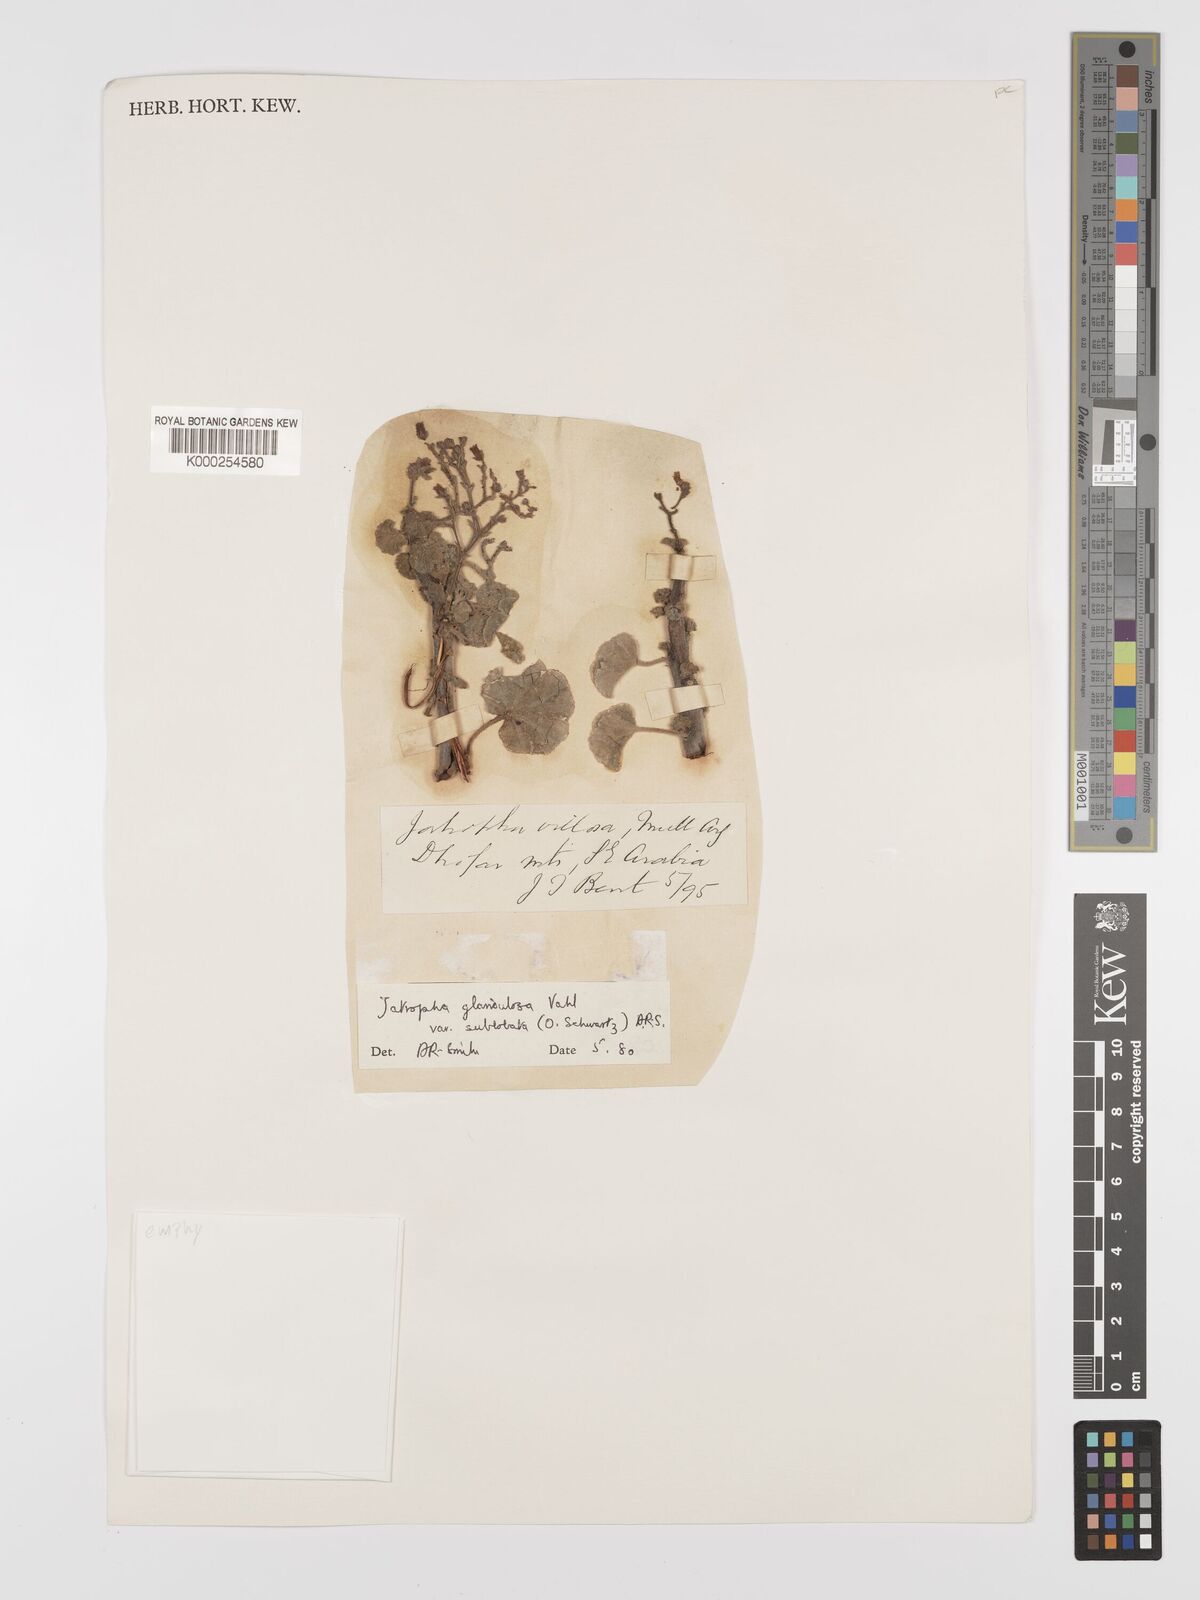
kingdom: Plantae
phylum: Tracheophyta
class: Magnoliopsida
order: Malpighiales
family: Euphorbiaceae
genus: Jatropha
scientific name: Jatropha pelargoniifolia
